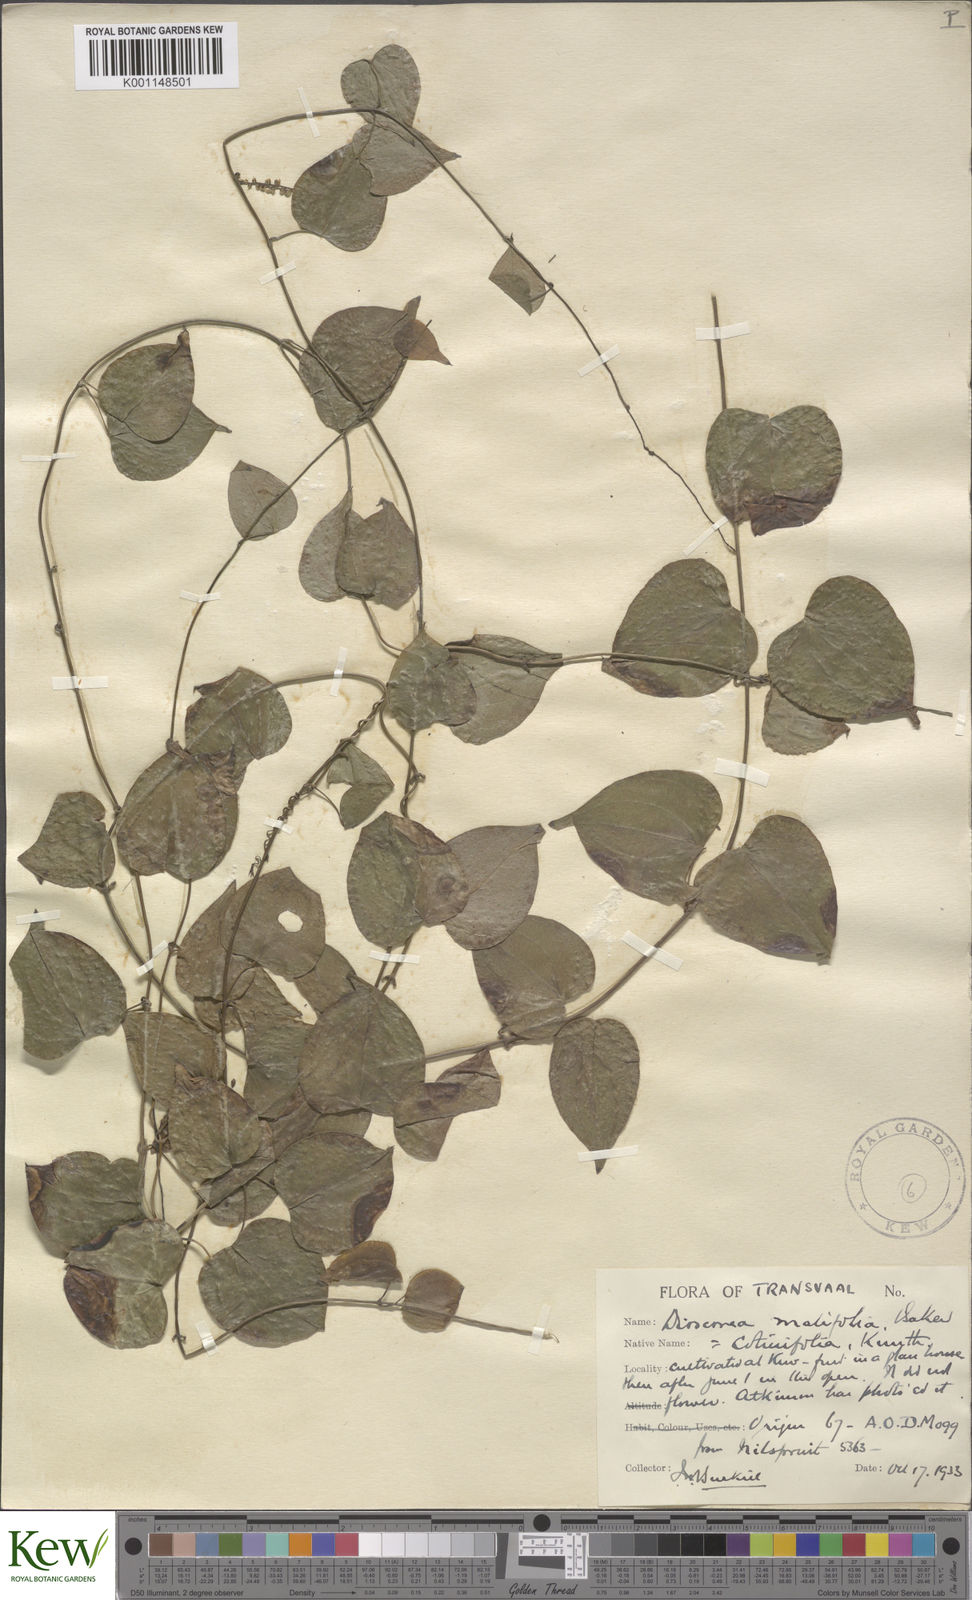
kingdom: Plantae
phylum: Tracheophyta
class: Liliopsida
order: Dioscoreales
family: Dioscoreaceae
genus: Dioscorea
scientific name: Dioscorea cotinifolia
